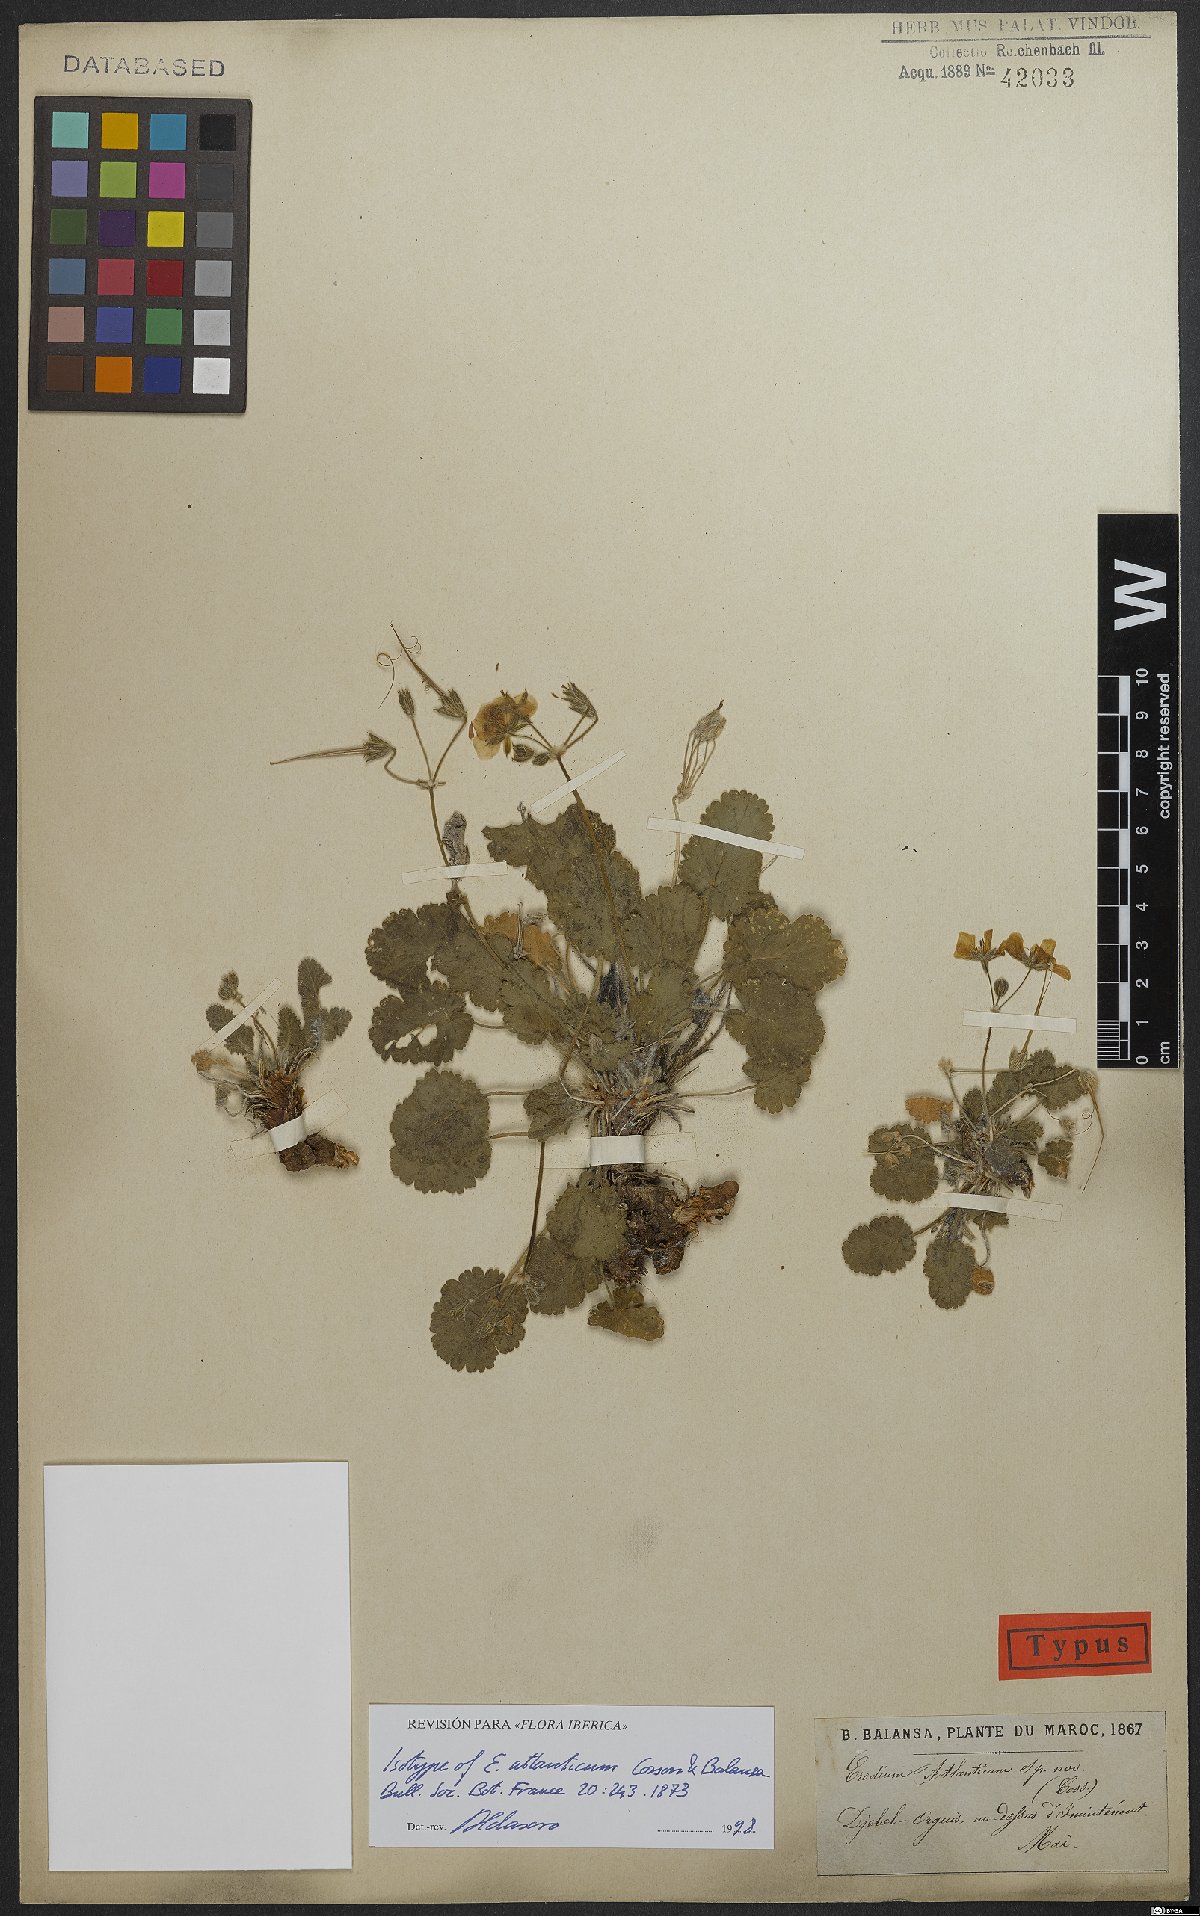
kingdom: Plantae
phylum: Tracheophyta
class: Magnoliopsida
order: Geraniales
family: Geraniaceae
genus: Erodium
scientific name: Erodium atlanticum
